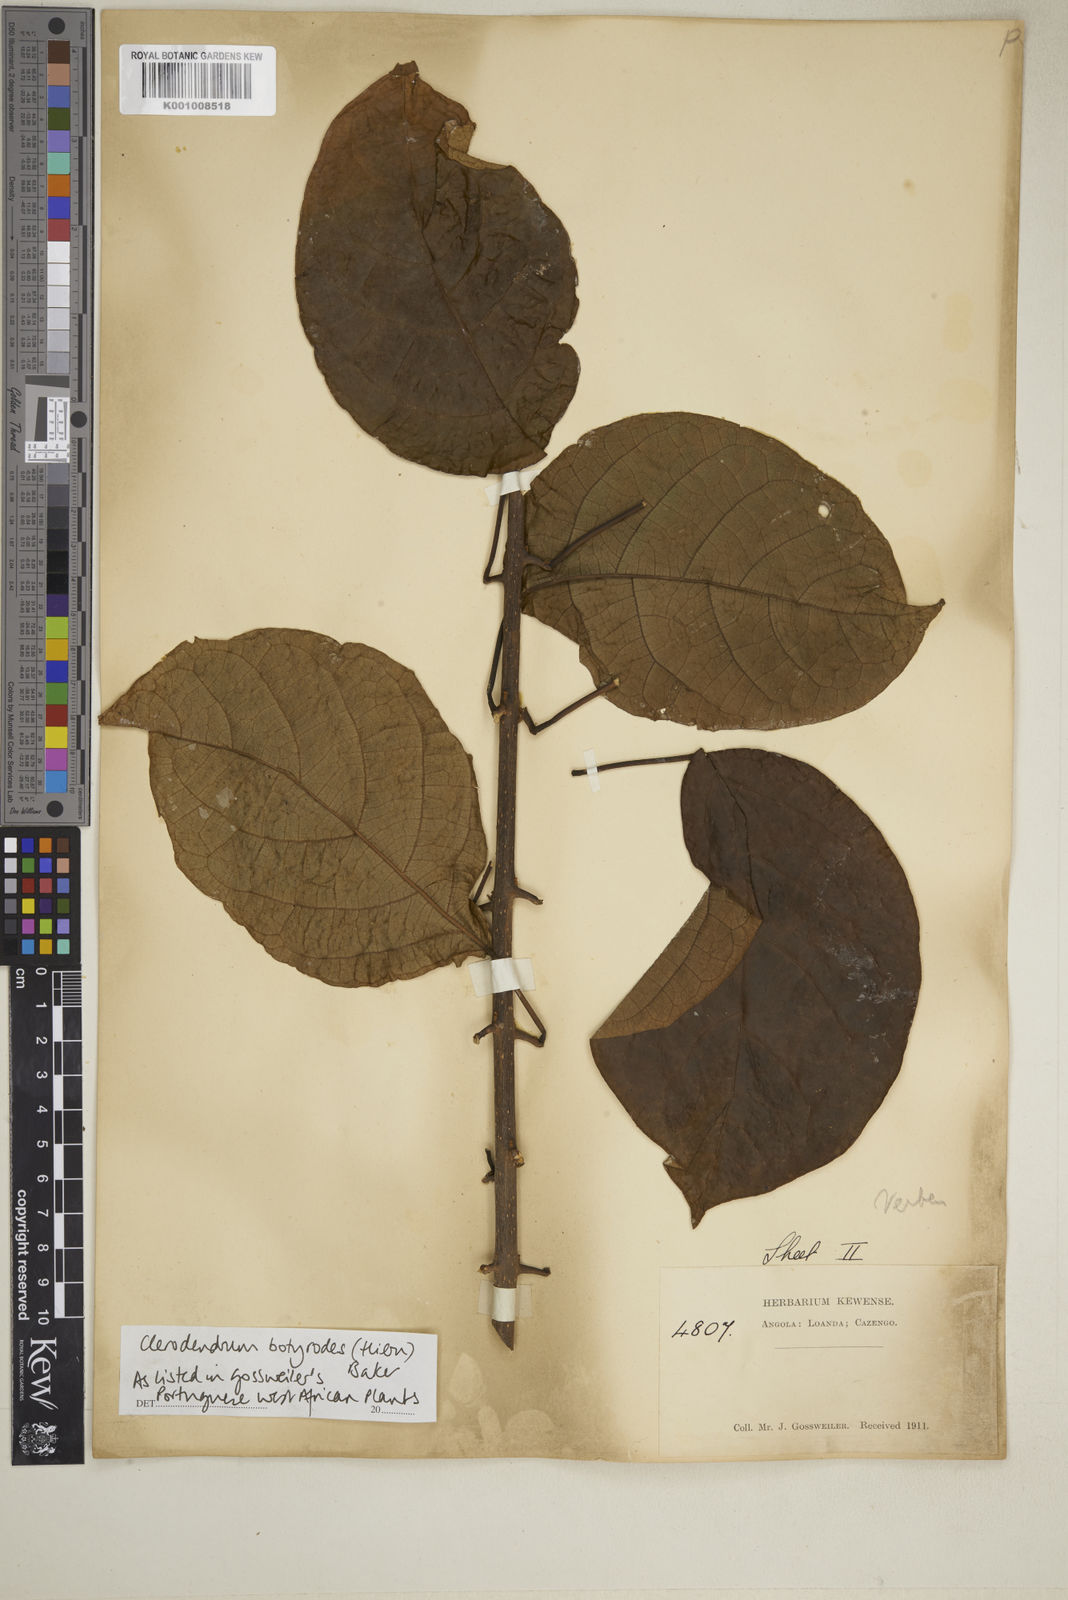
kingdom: Plantae
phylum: Tracheophyta
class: Magnoliopsida
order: Lamiales
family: Lamiaceae
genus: Clerodendrum
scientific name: Clerodendrum silvanum
